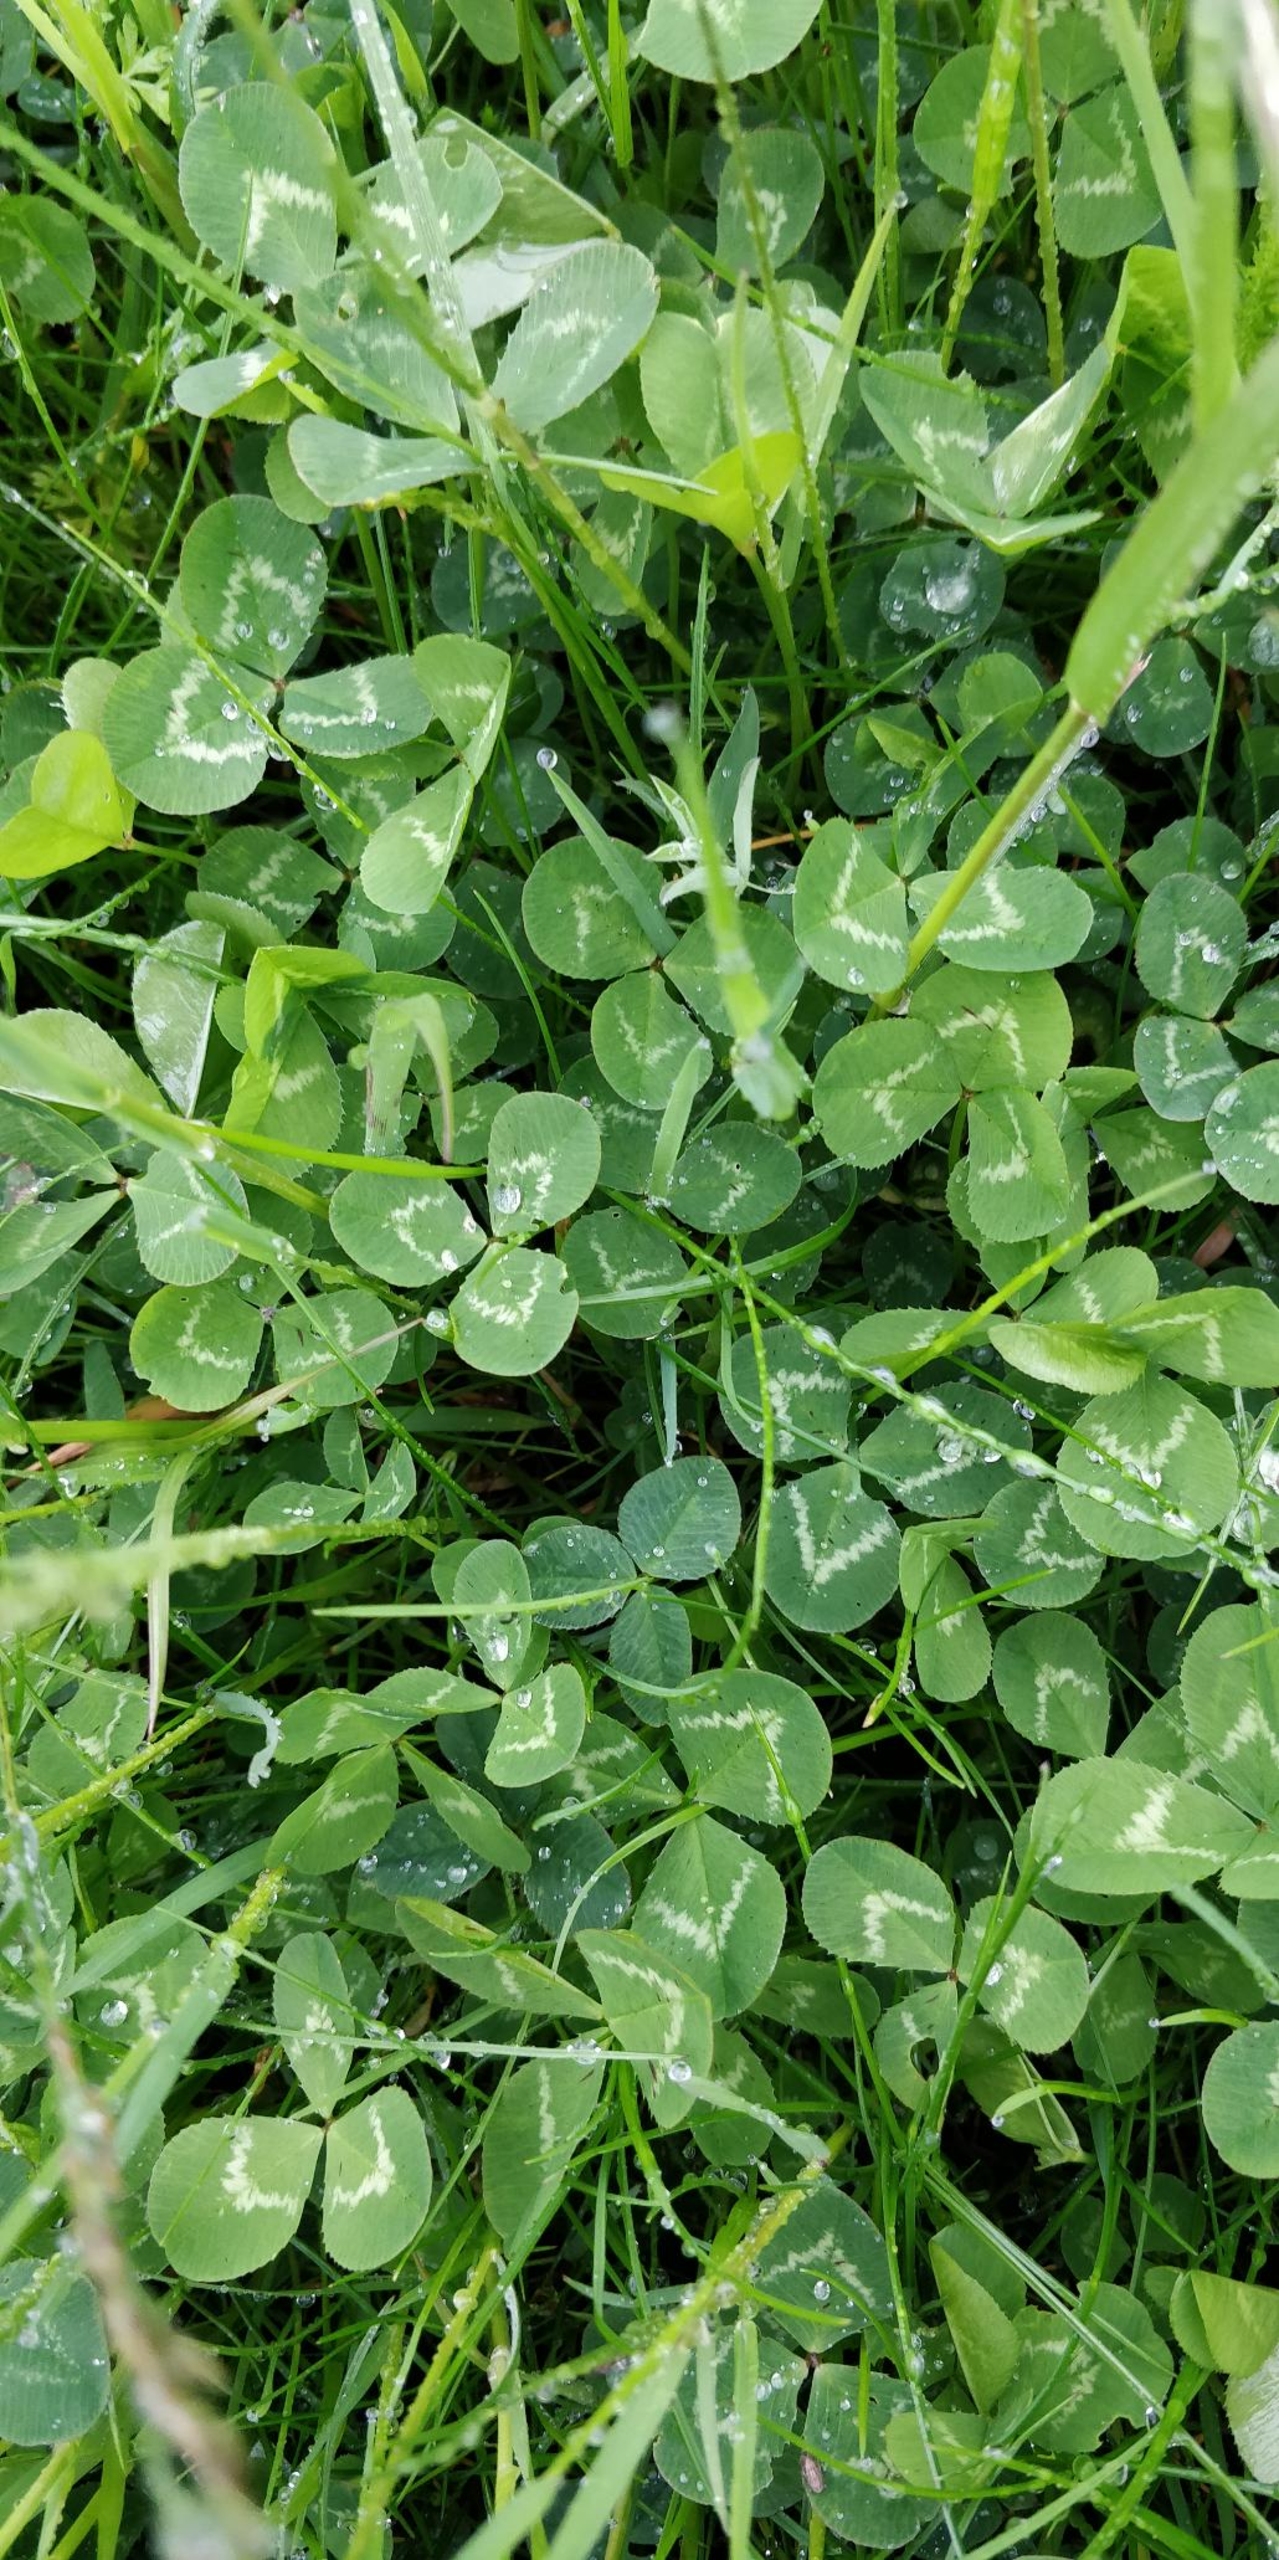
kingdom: Plantae
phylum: Tracheophyta
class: Magnoliopsida
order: Fabales
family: Fabaceae
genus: Trifolium
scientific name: Trifolium repens
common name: Hvid-kløver
